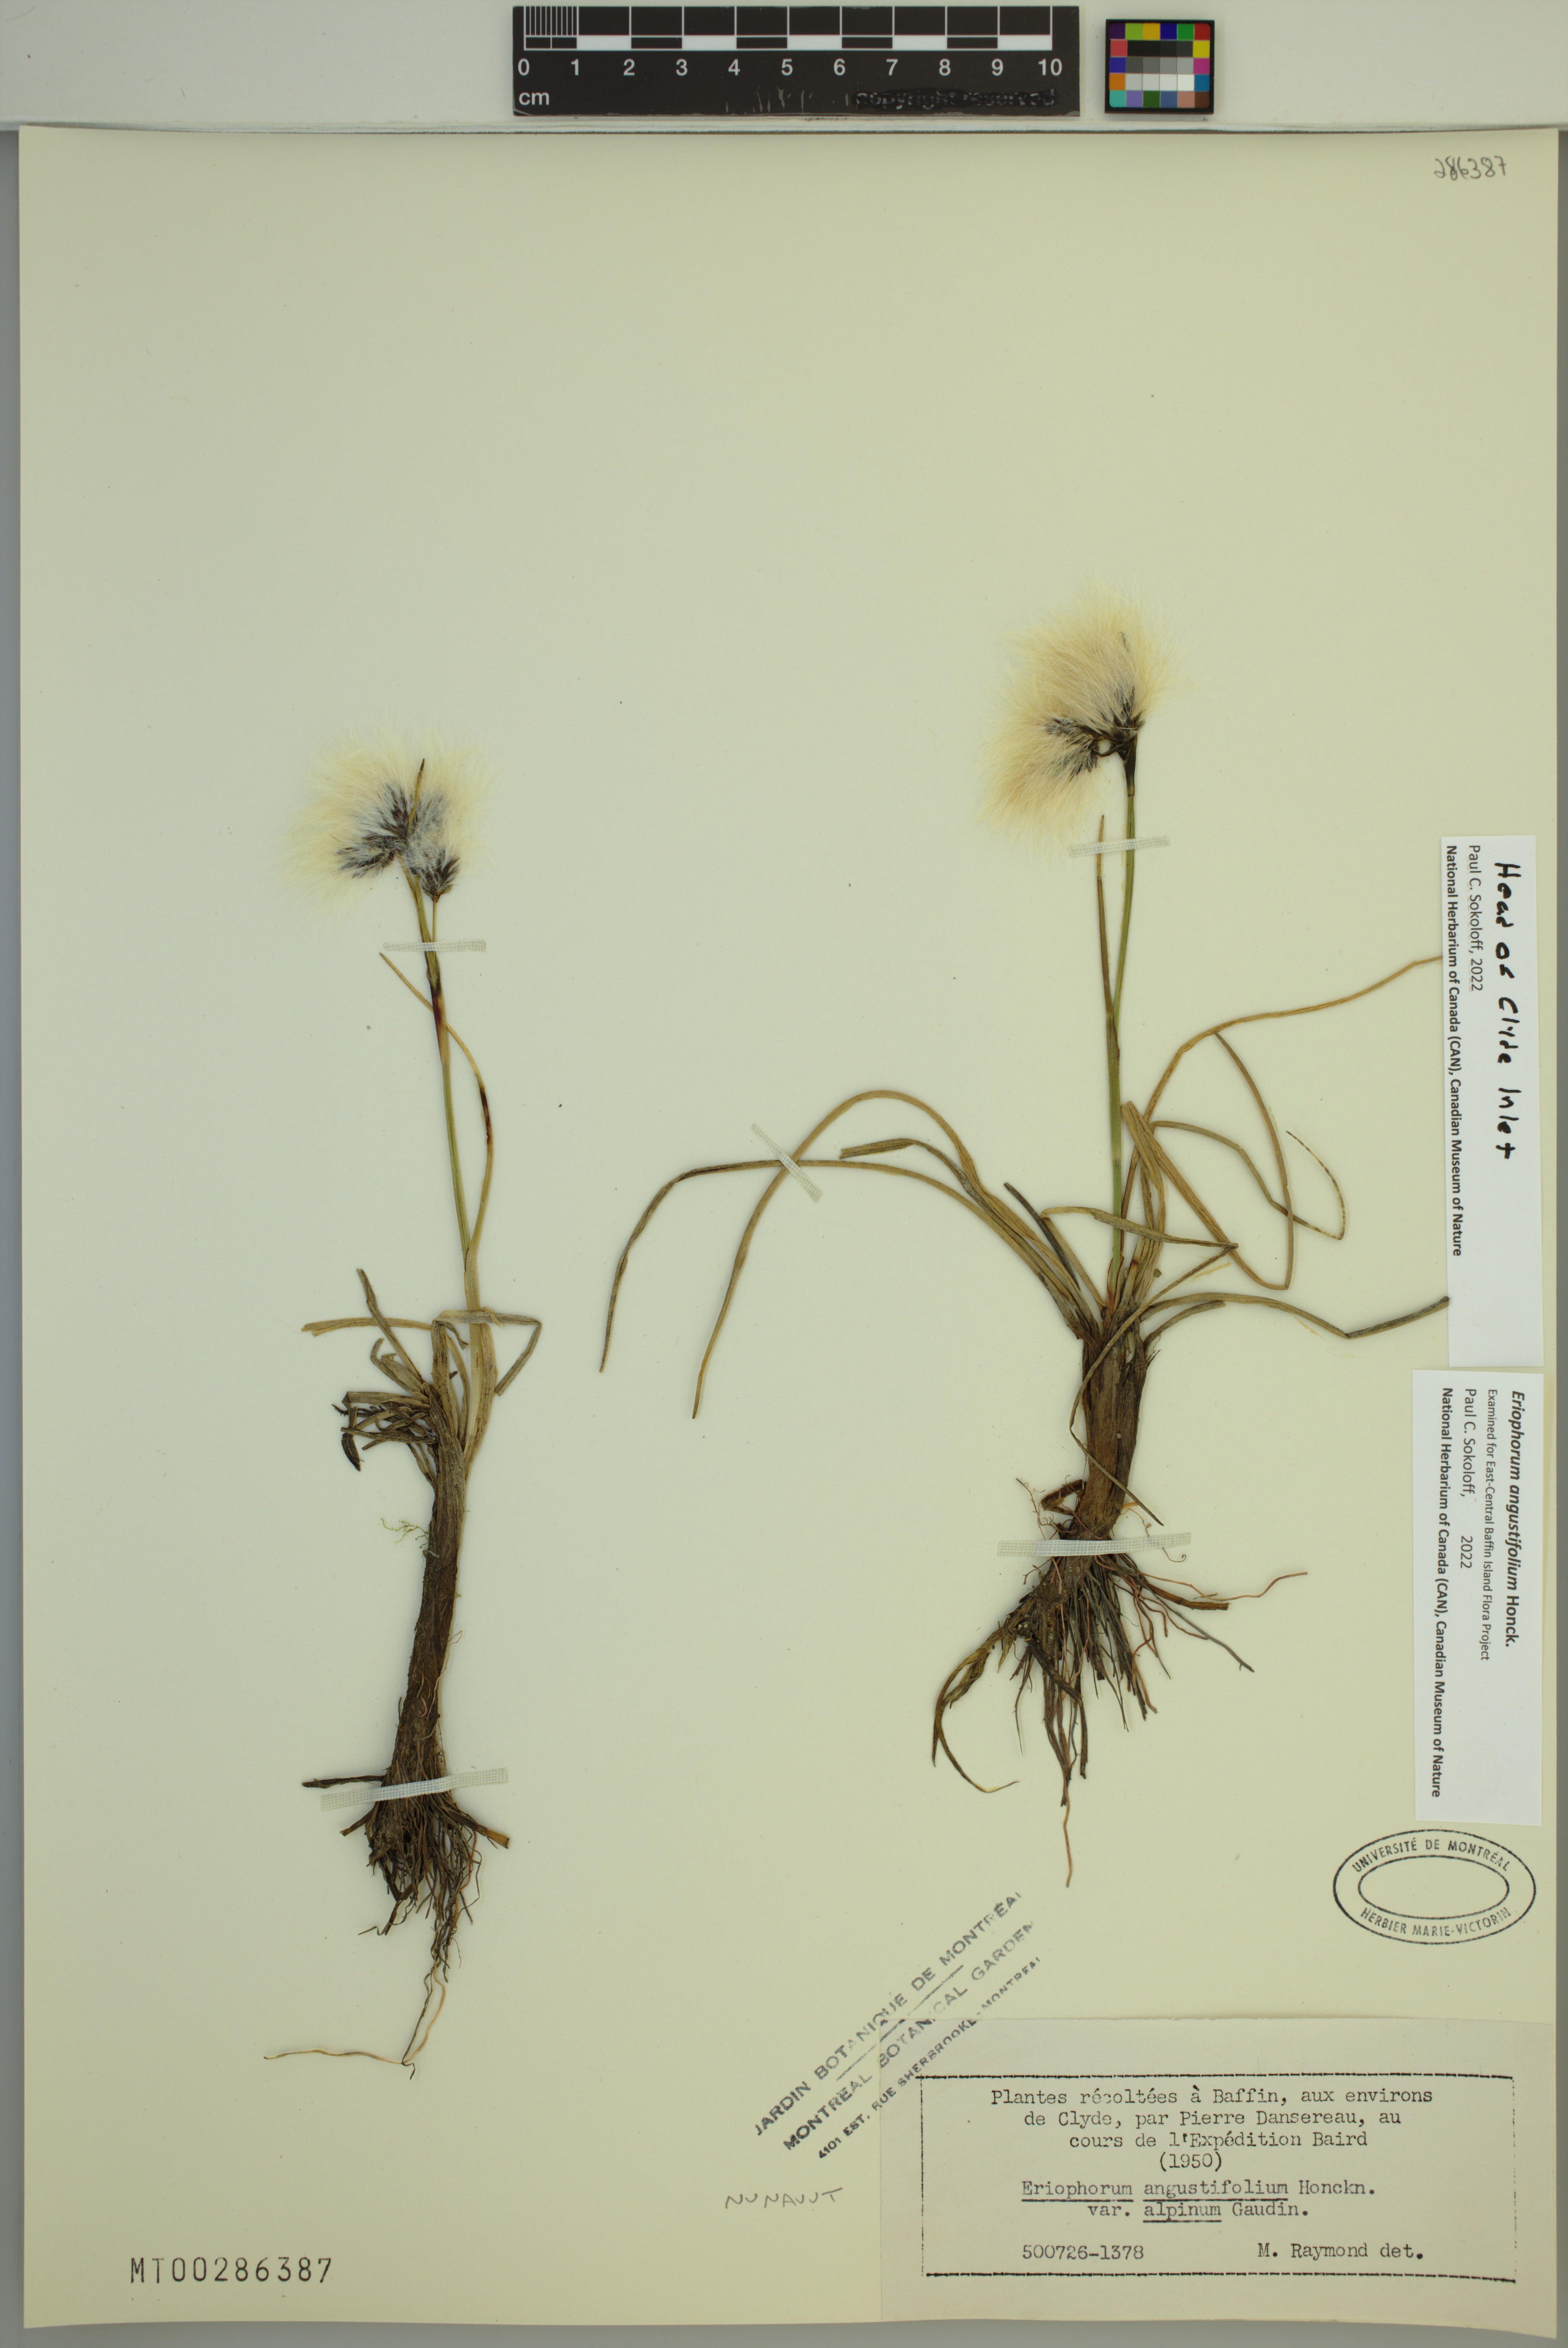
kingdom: Plantae
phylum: Tracheophyta
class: Liliopsida
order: Poales
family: Cyperaceae
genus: Eriophorum
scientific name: Eriophorum angustifolium
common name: Common cottongrass
